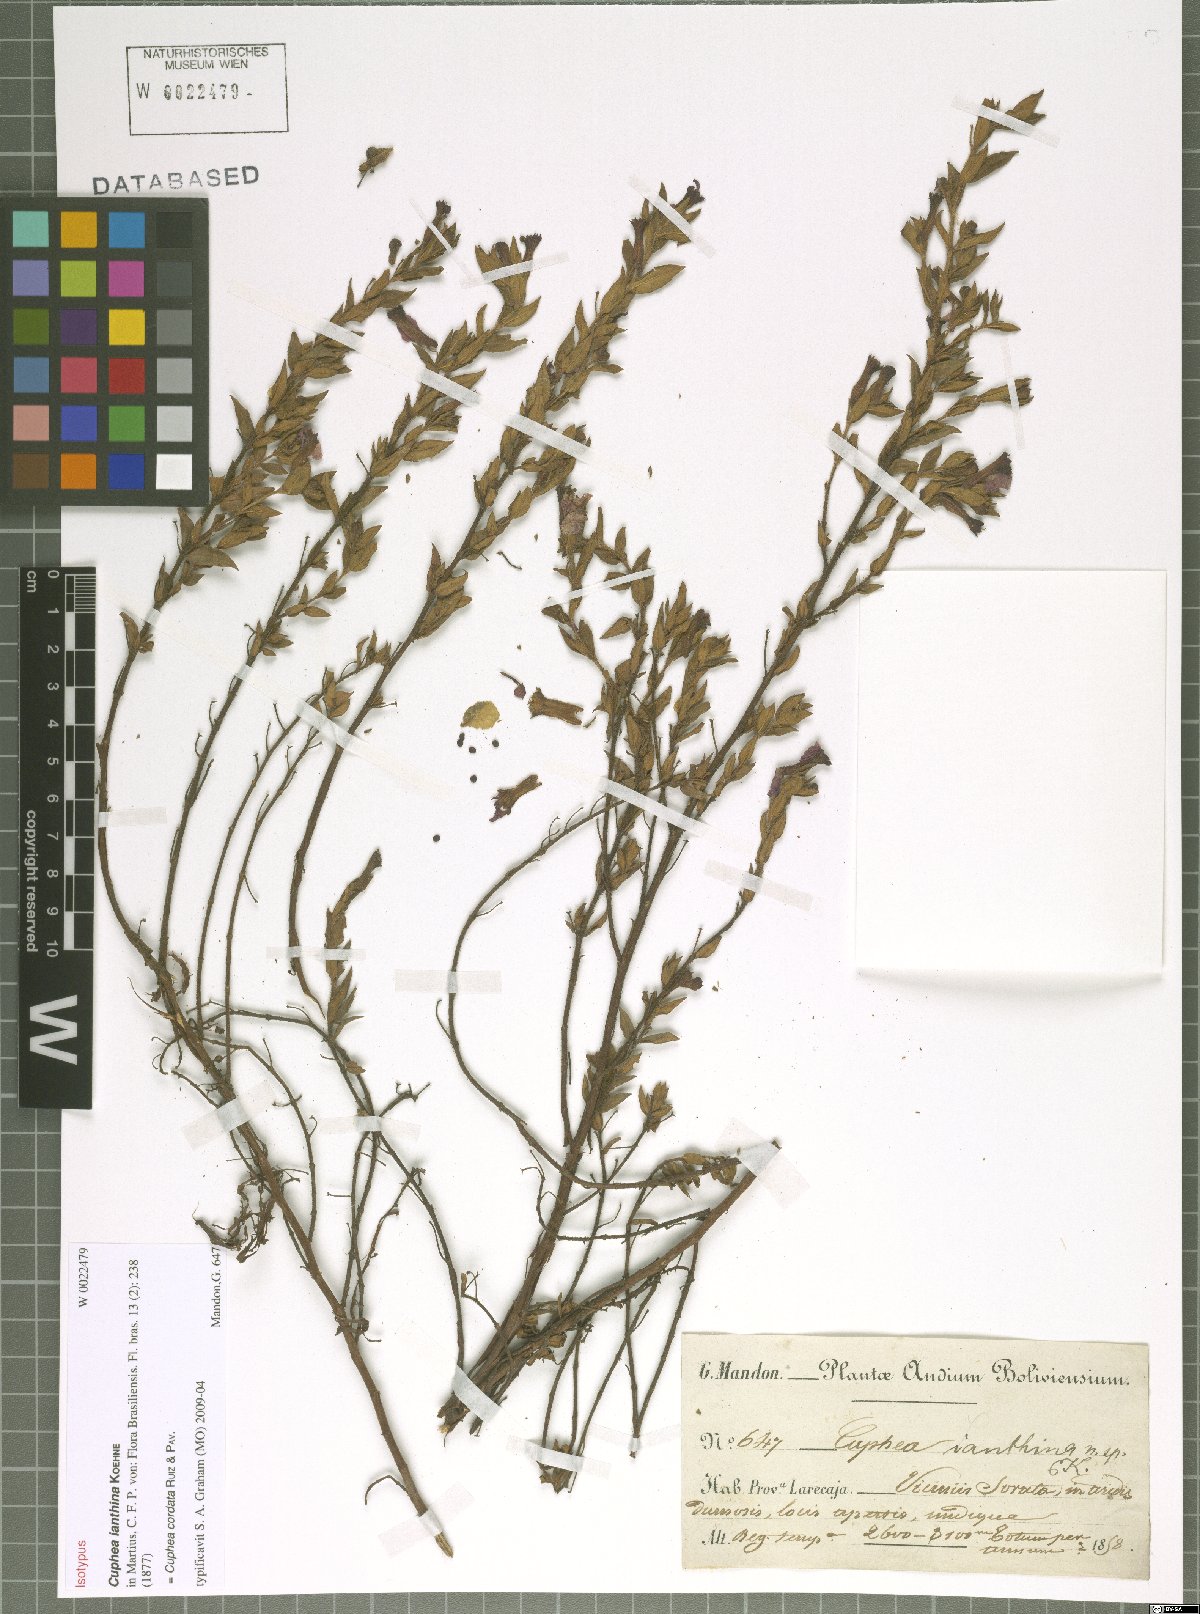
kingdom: Plantae
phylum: Tracheophyta
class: Magnoliopsida
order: Myrtales
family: Lythraceae
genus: Cuphea
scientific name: Cuphea cordata
